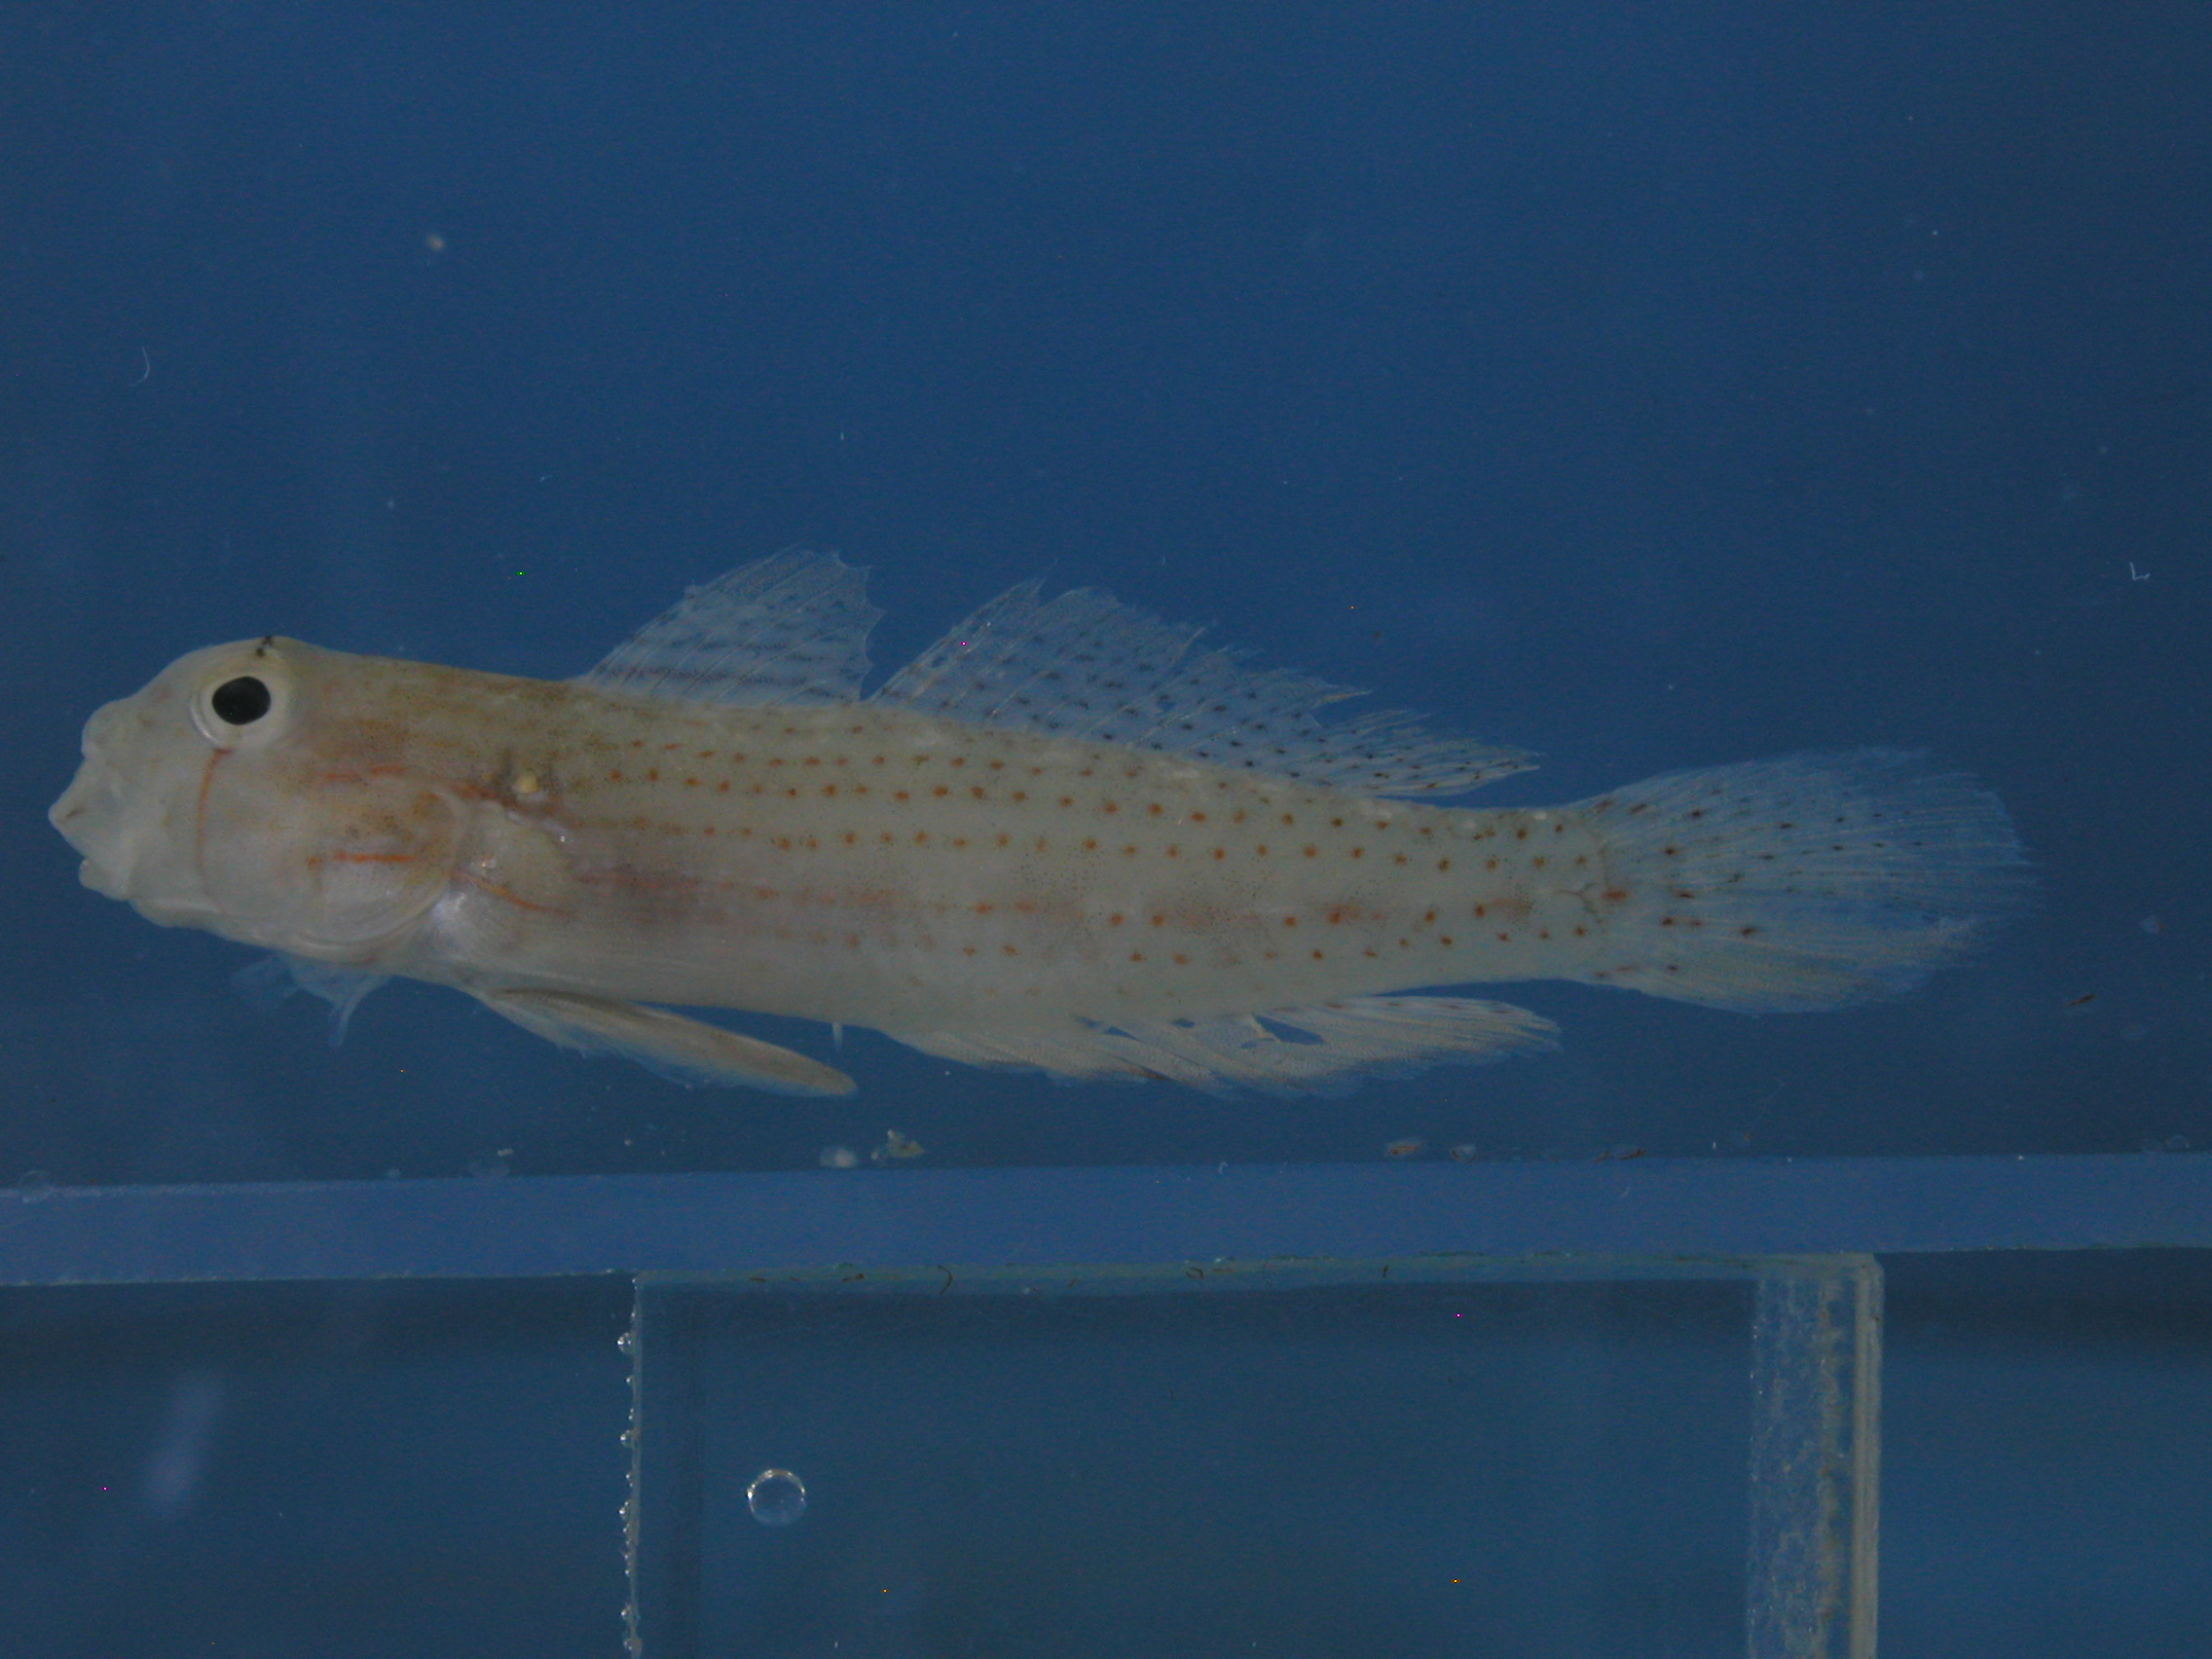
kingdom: Animalia
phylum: Chordata
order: Perciformes
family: Gobiidae
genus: Gnatholepis
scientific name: Gnatholepis anjerensis
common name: Anjer eye-bar goby
